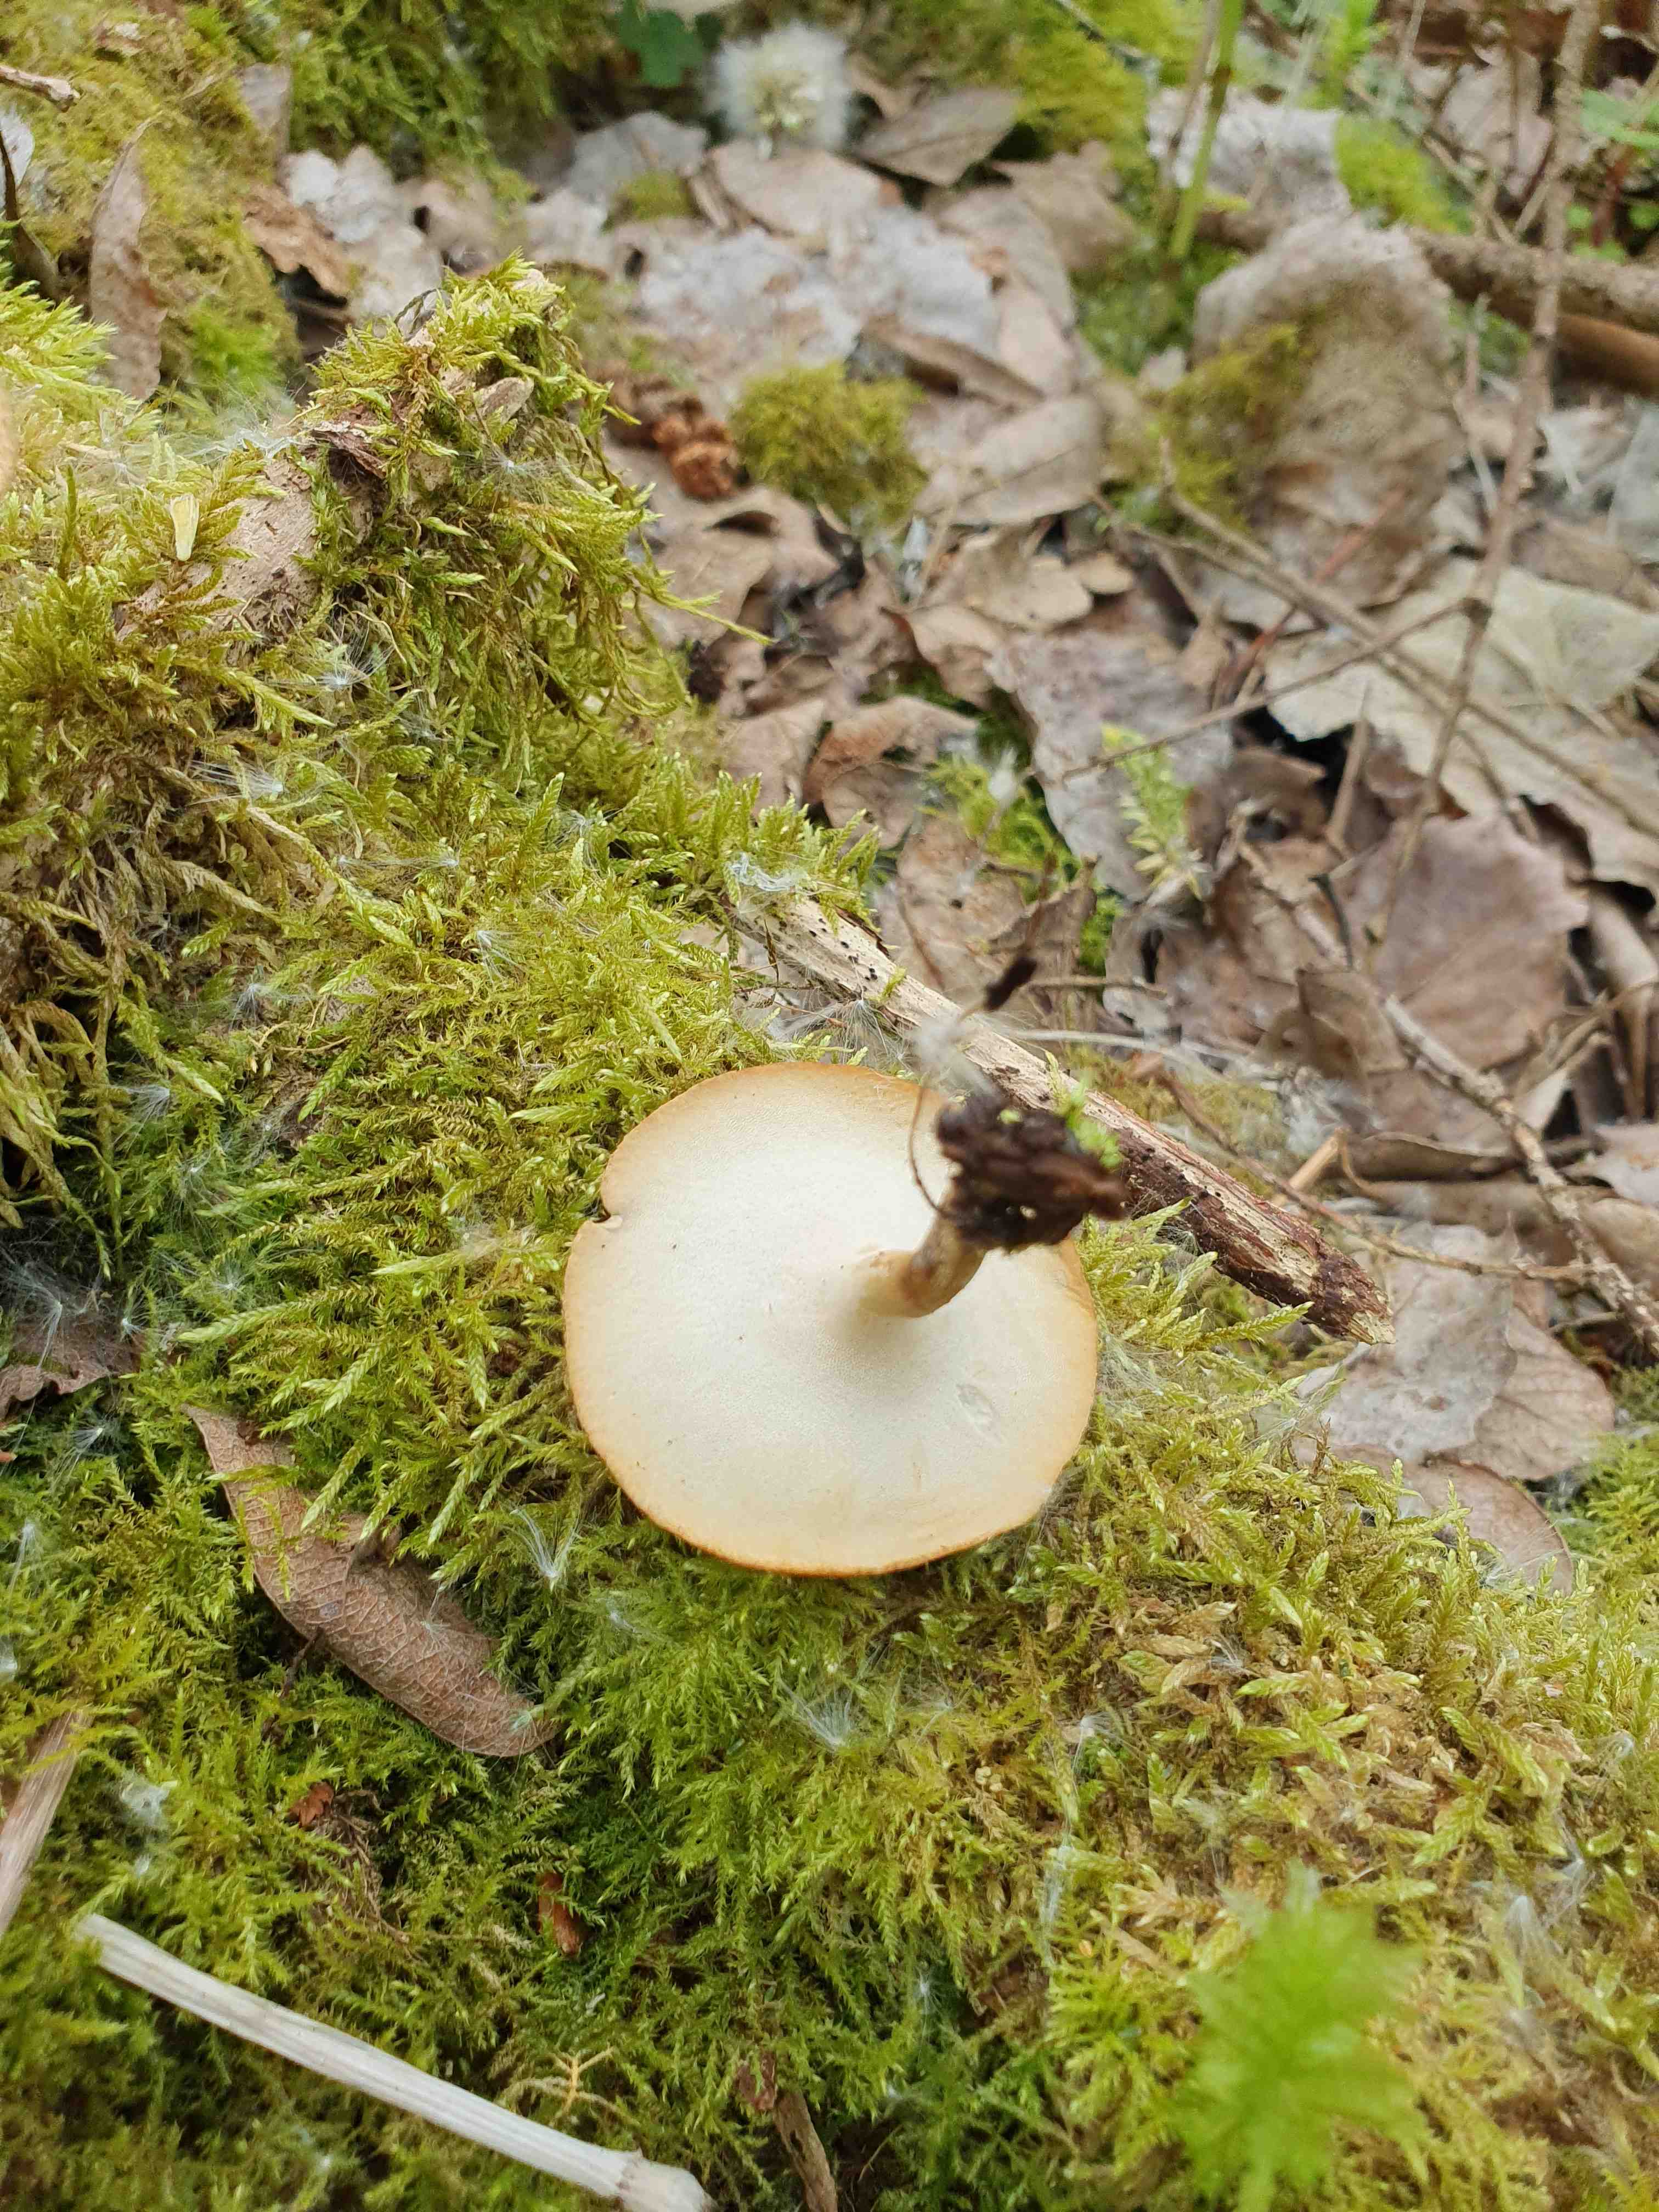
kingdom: Fungi
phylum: Basidiomycota
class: Agaricomycetes
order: Polyporales
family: Polyporaceae
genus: Cerioporus
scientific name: Cerioporus varius
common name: foranderlig stilkporesvamp
